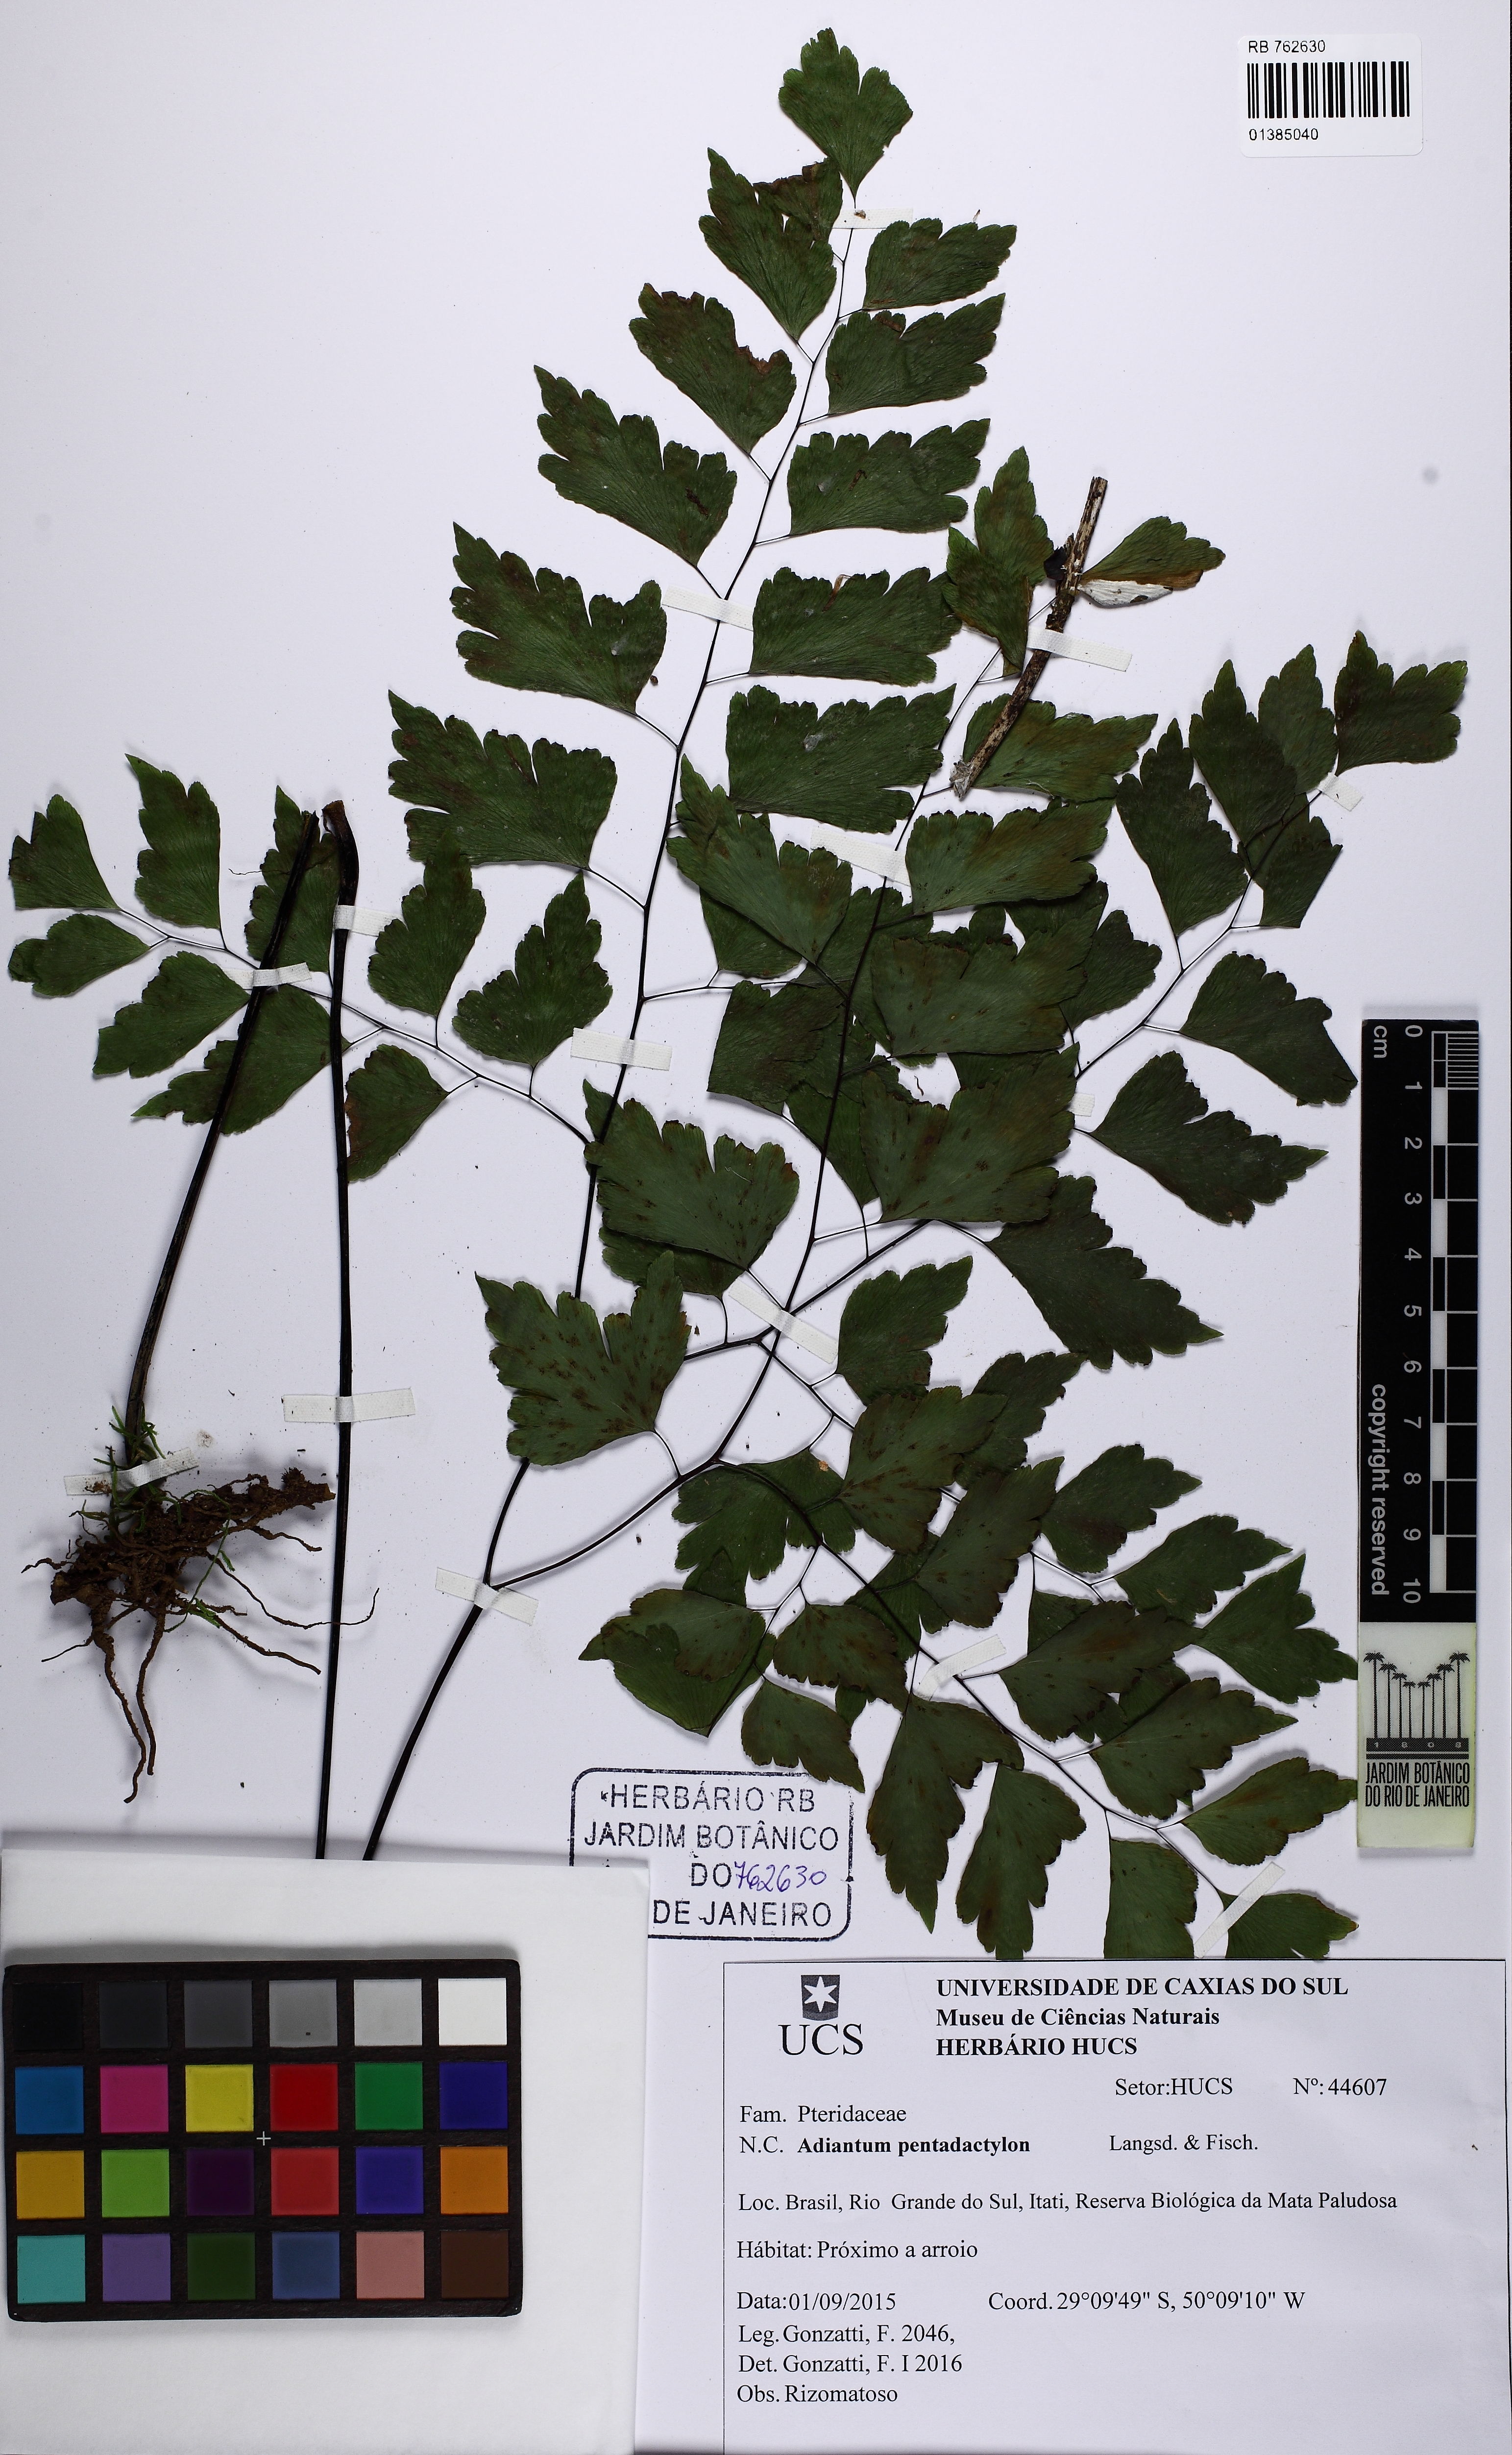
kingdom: Plantae
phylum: Tracheophyta
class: Polypodiopsida
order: Polypodiales
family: Pteridaceae
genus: Adiantum
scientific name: Adiantum pentadactylon
